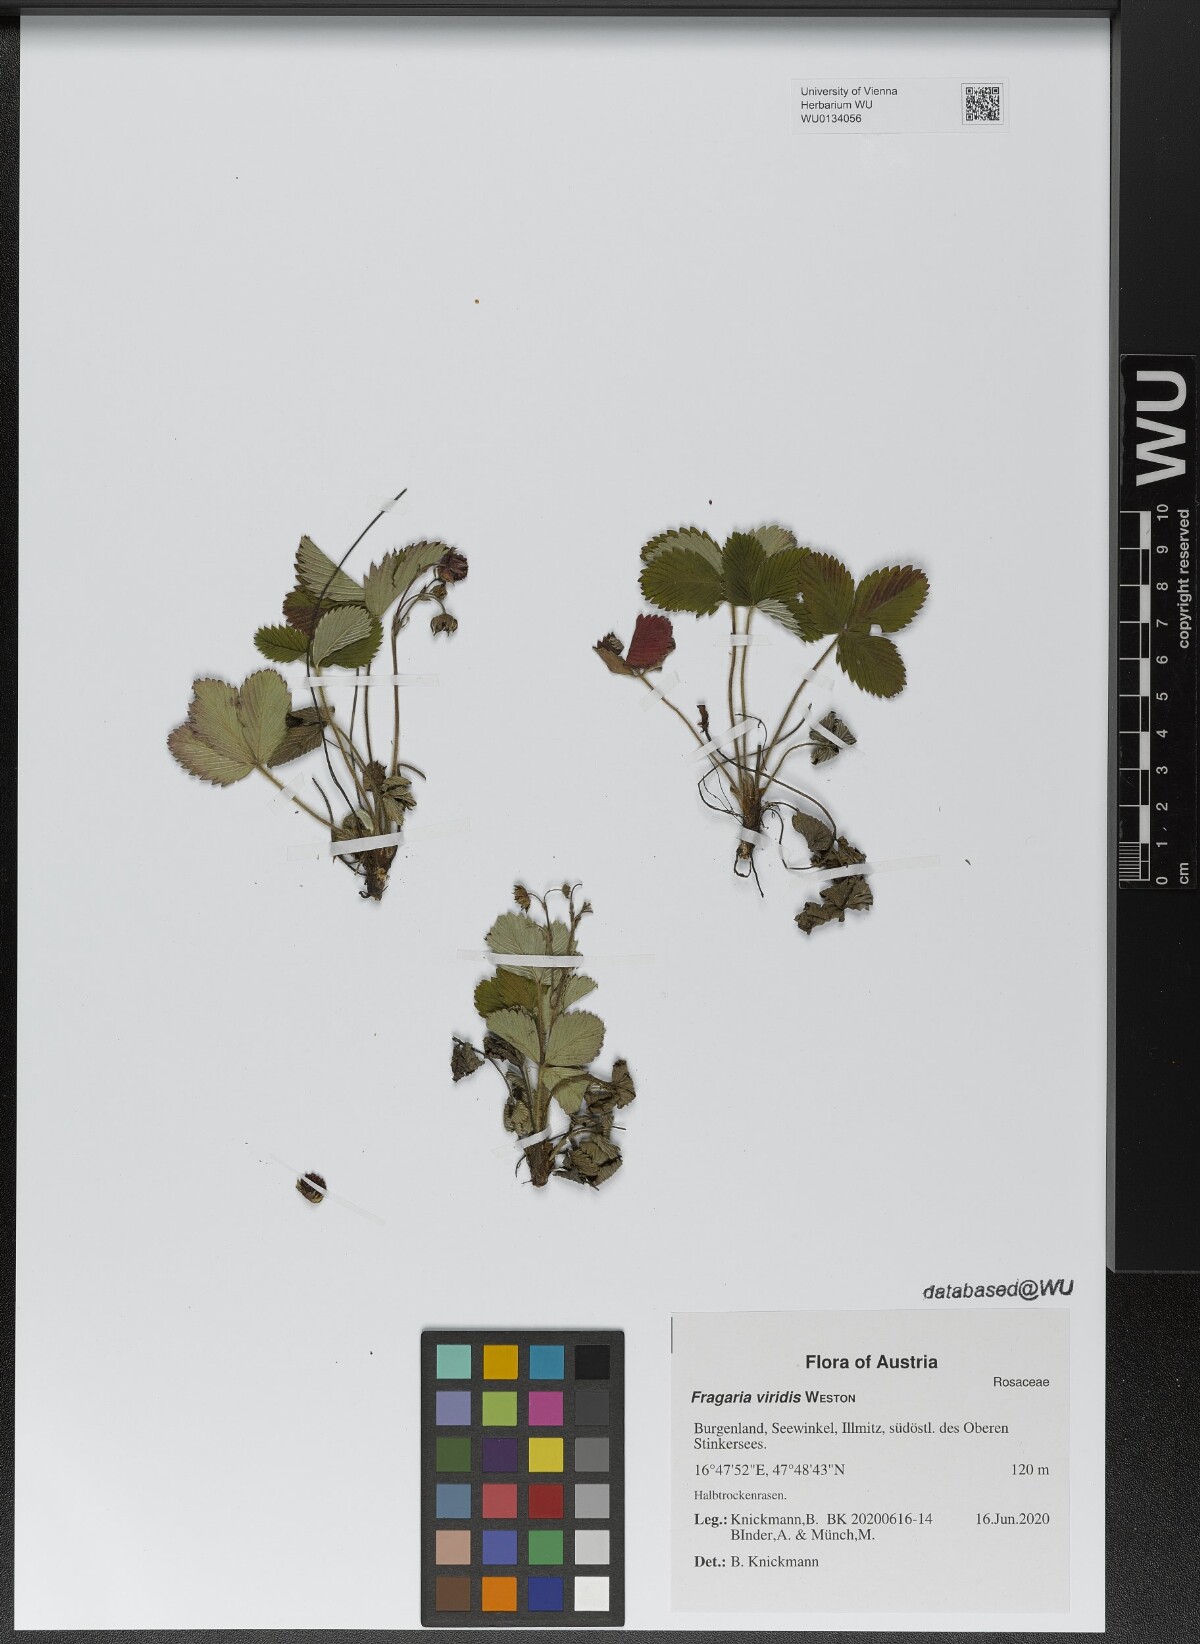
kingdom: Plantae
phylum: Tracheophyta
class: Magnoliopsida
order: Rosales
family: Rosaceae
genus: Fragaria
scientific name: Fragaria viridis
